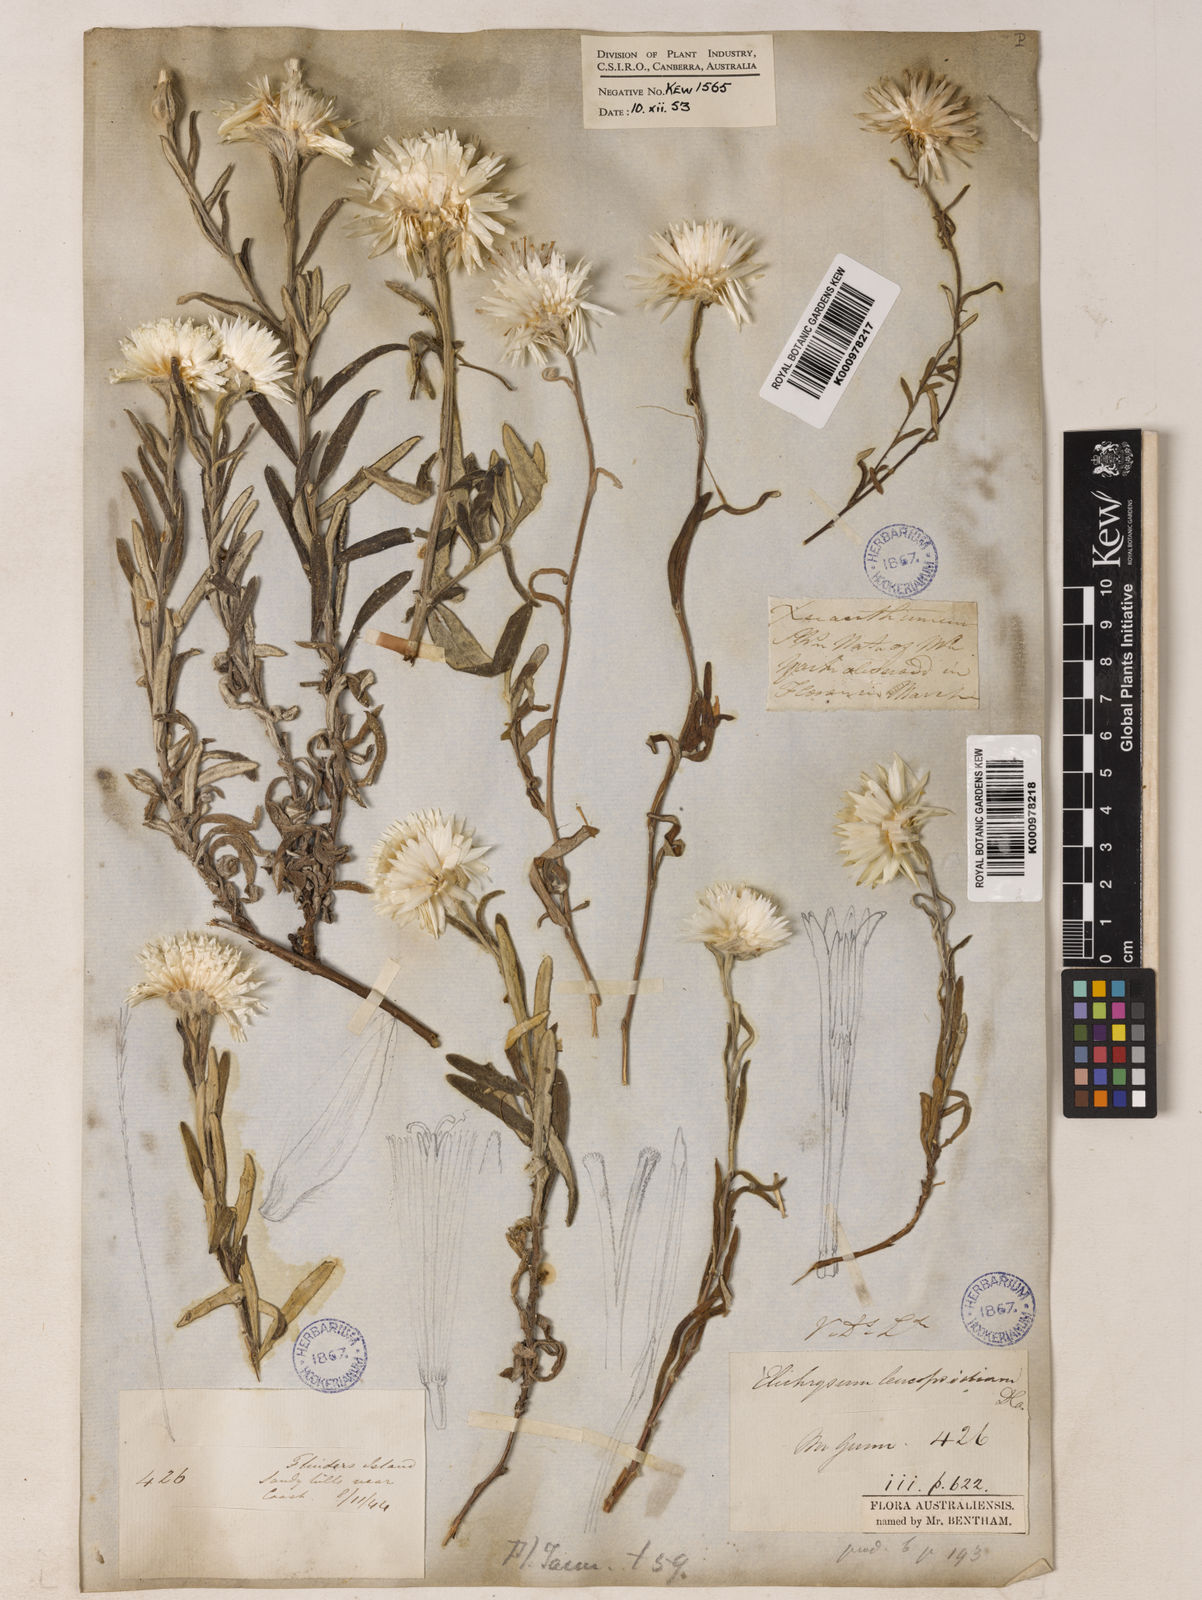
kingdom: Plantae
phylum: Tracheophyta
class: Magnoliopsida
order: Asterales
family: Asteraceae
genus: Helichrysum
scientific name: Helichrysum leucopsideum
